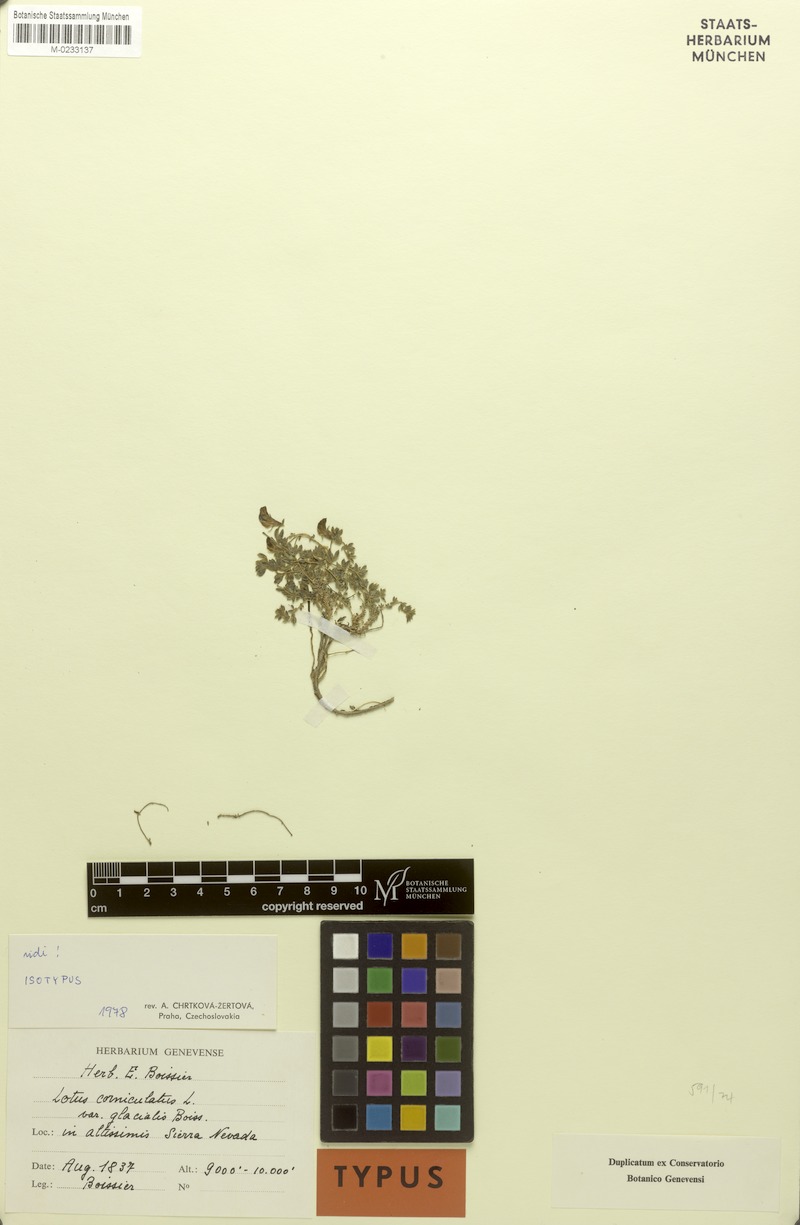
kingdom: Plantae
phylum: Tracheophyta
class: Magnoliopsida
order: Fabales
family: Fabaceae
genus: Lotus
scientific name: Lotus glacialis
